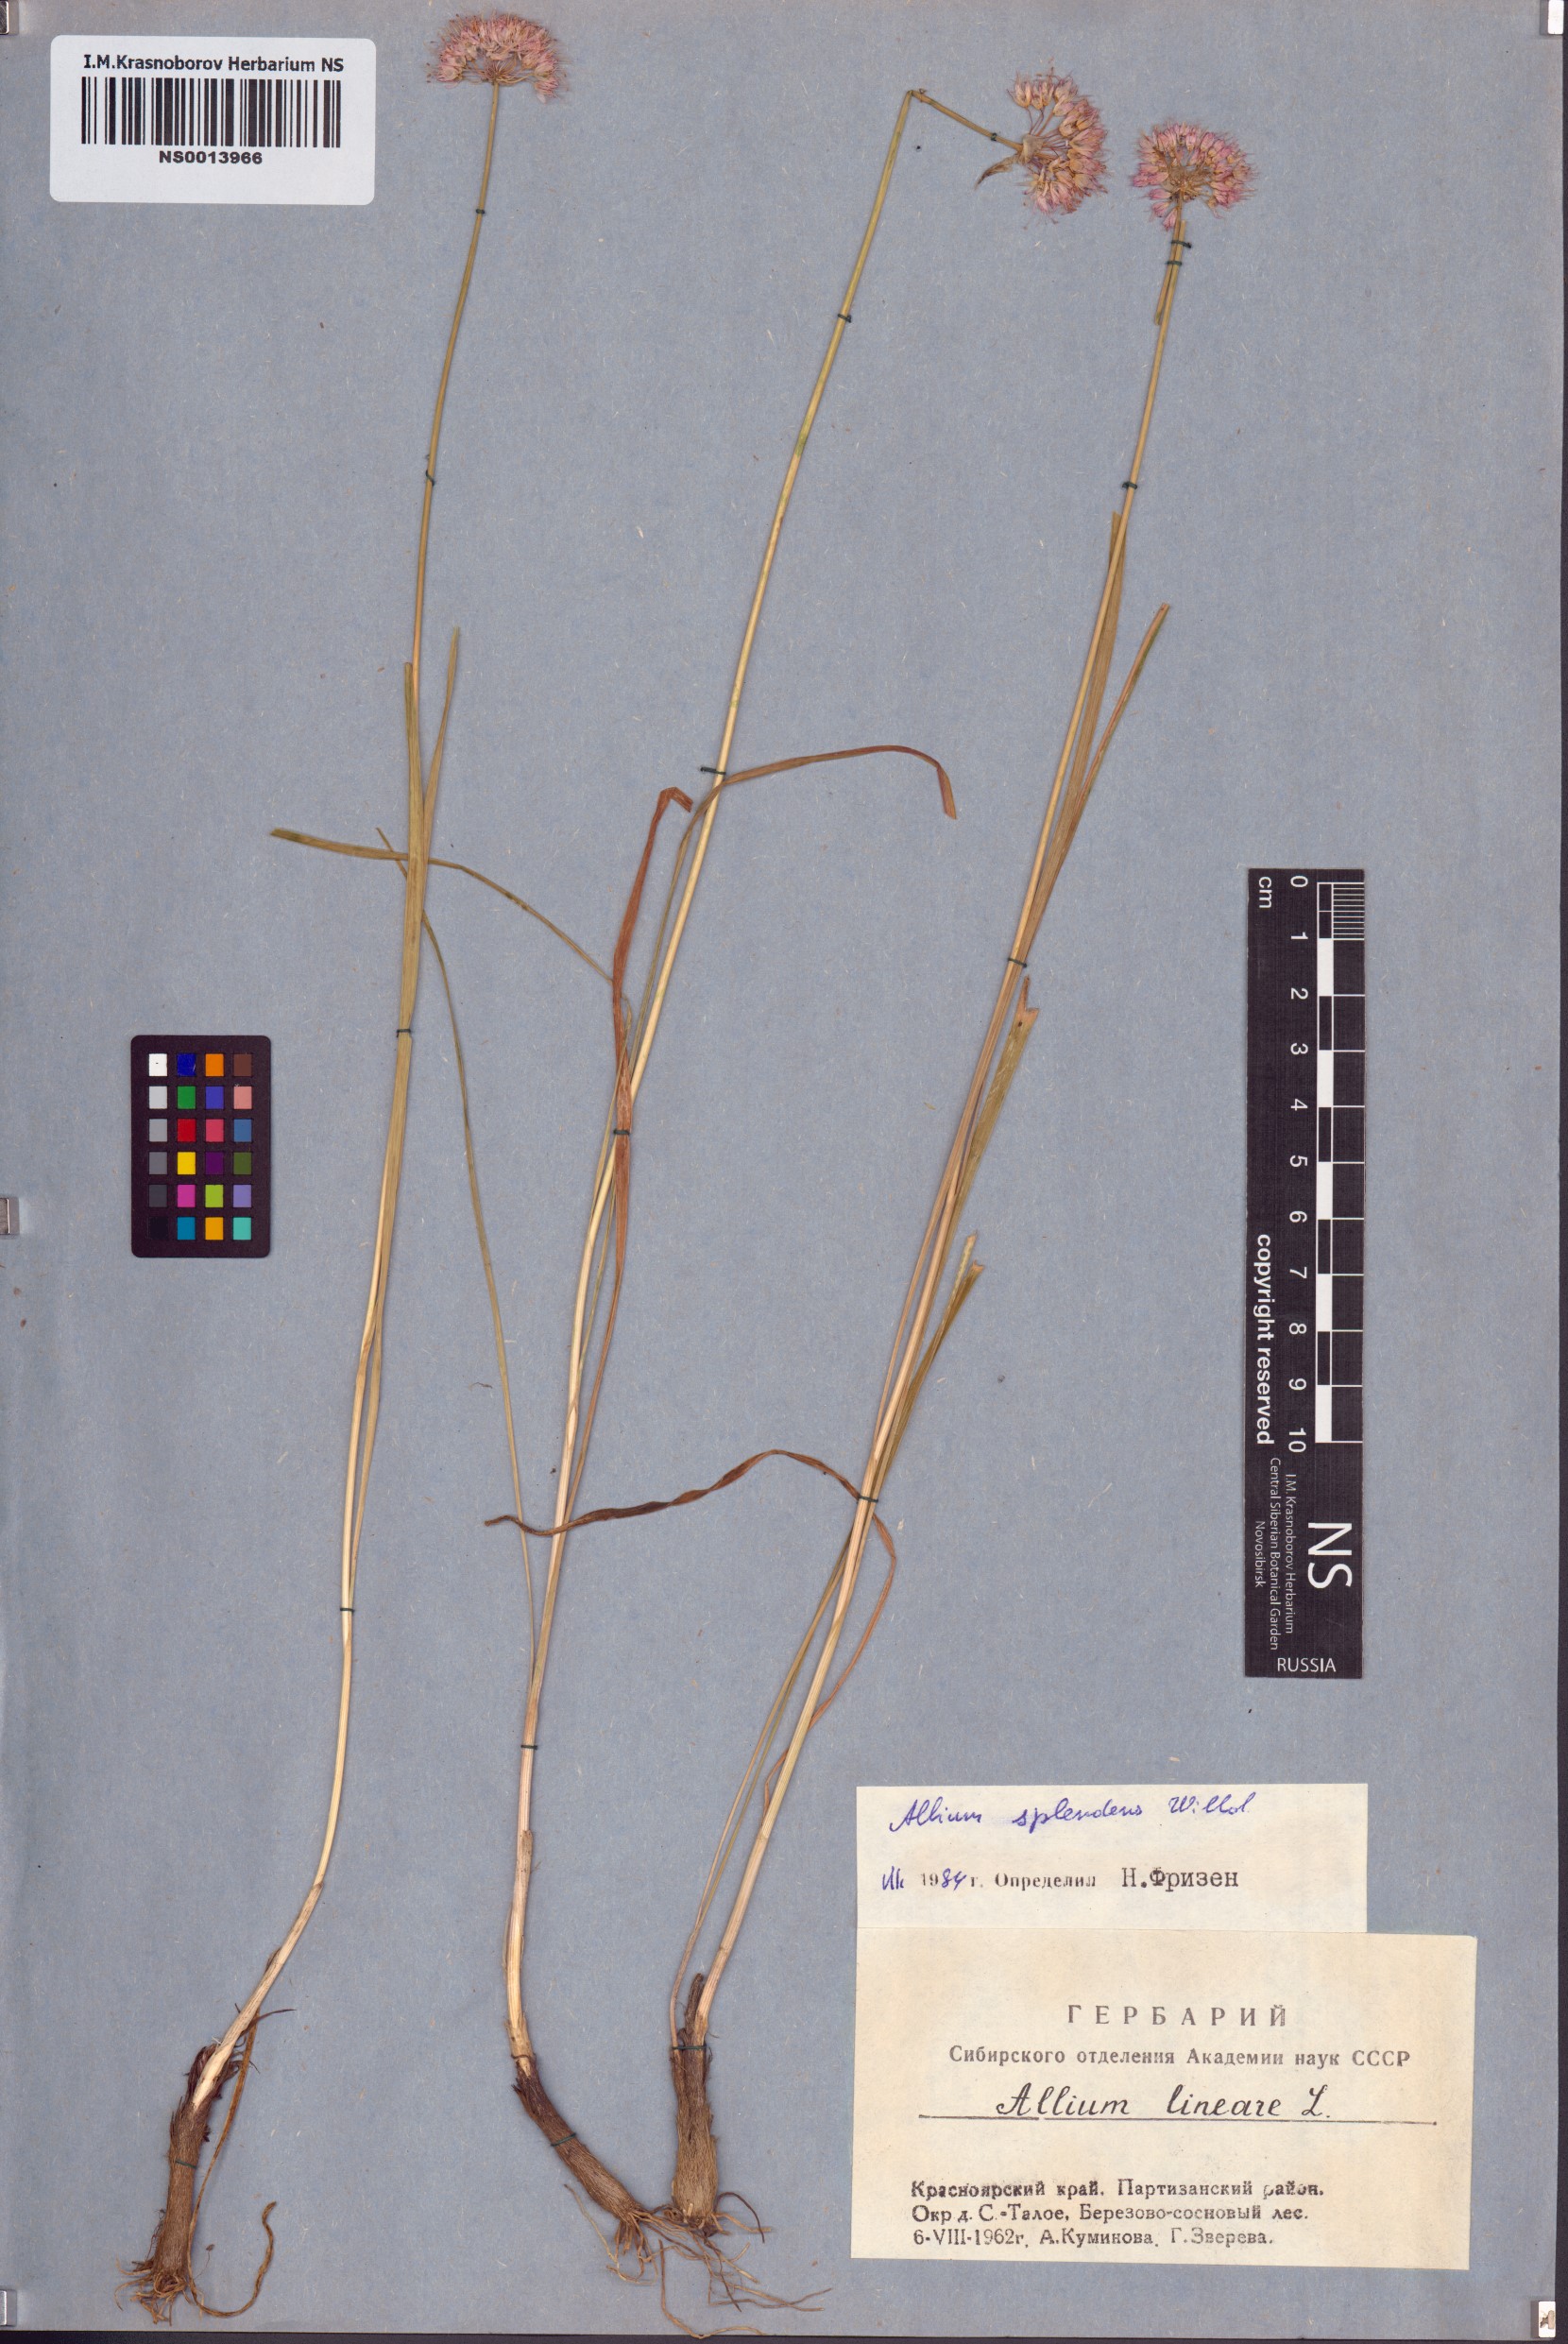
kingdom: Plantae
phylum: Tracheophyta
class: Liliopsida
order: Asparagales
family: Amaryllidaceae
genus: Allium
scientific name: Allium splendens
